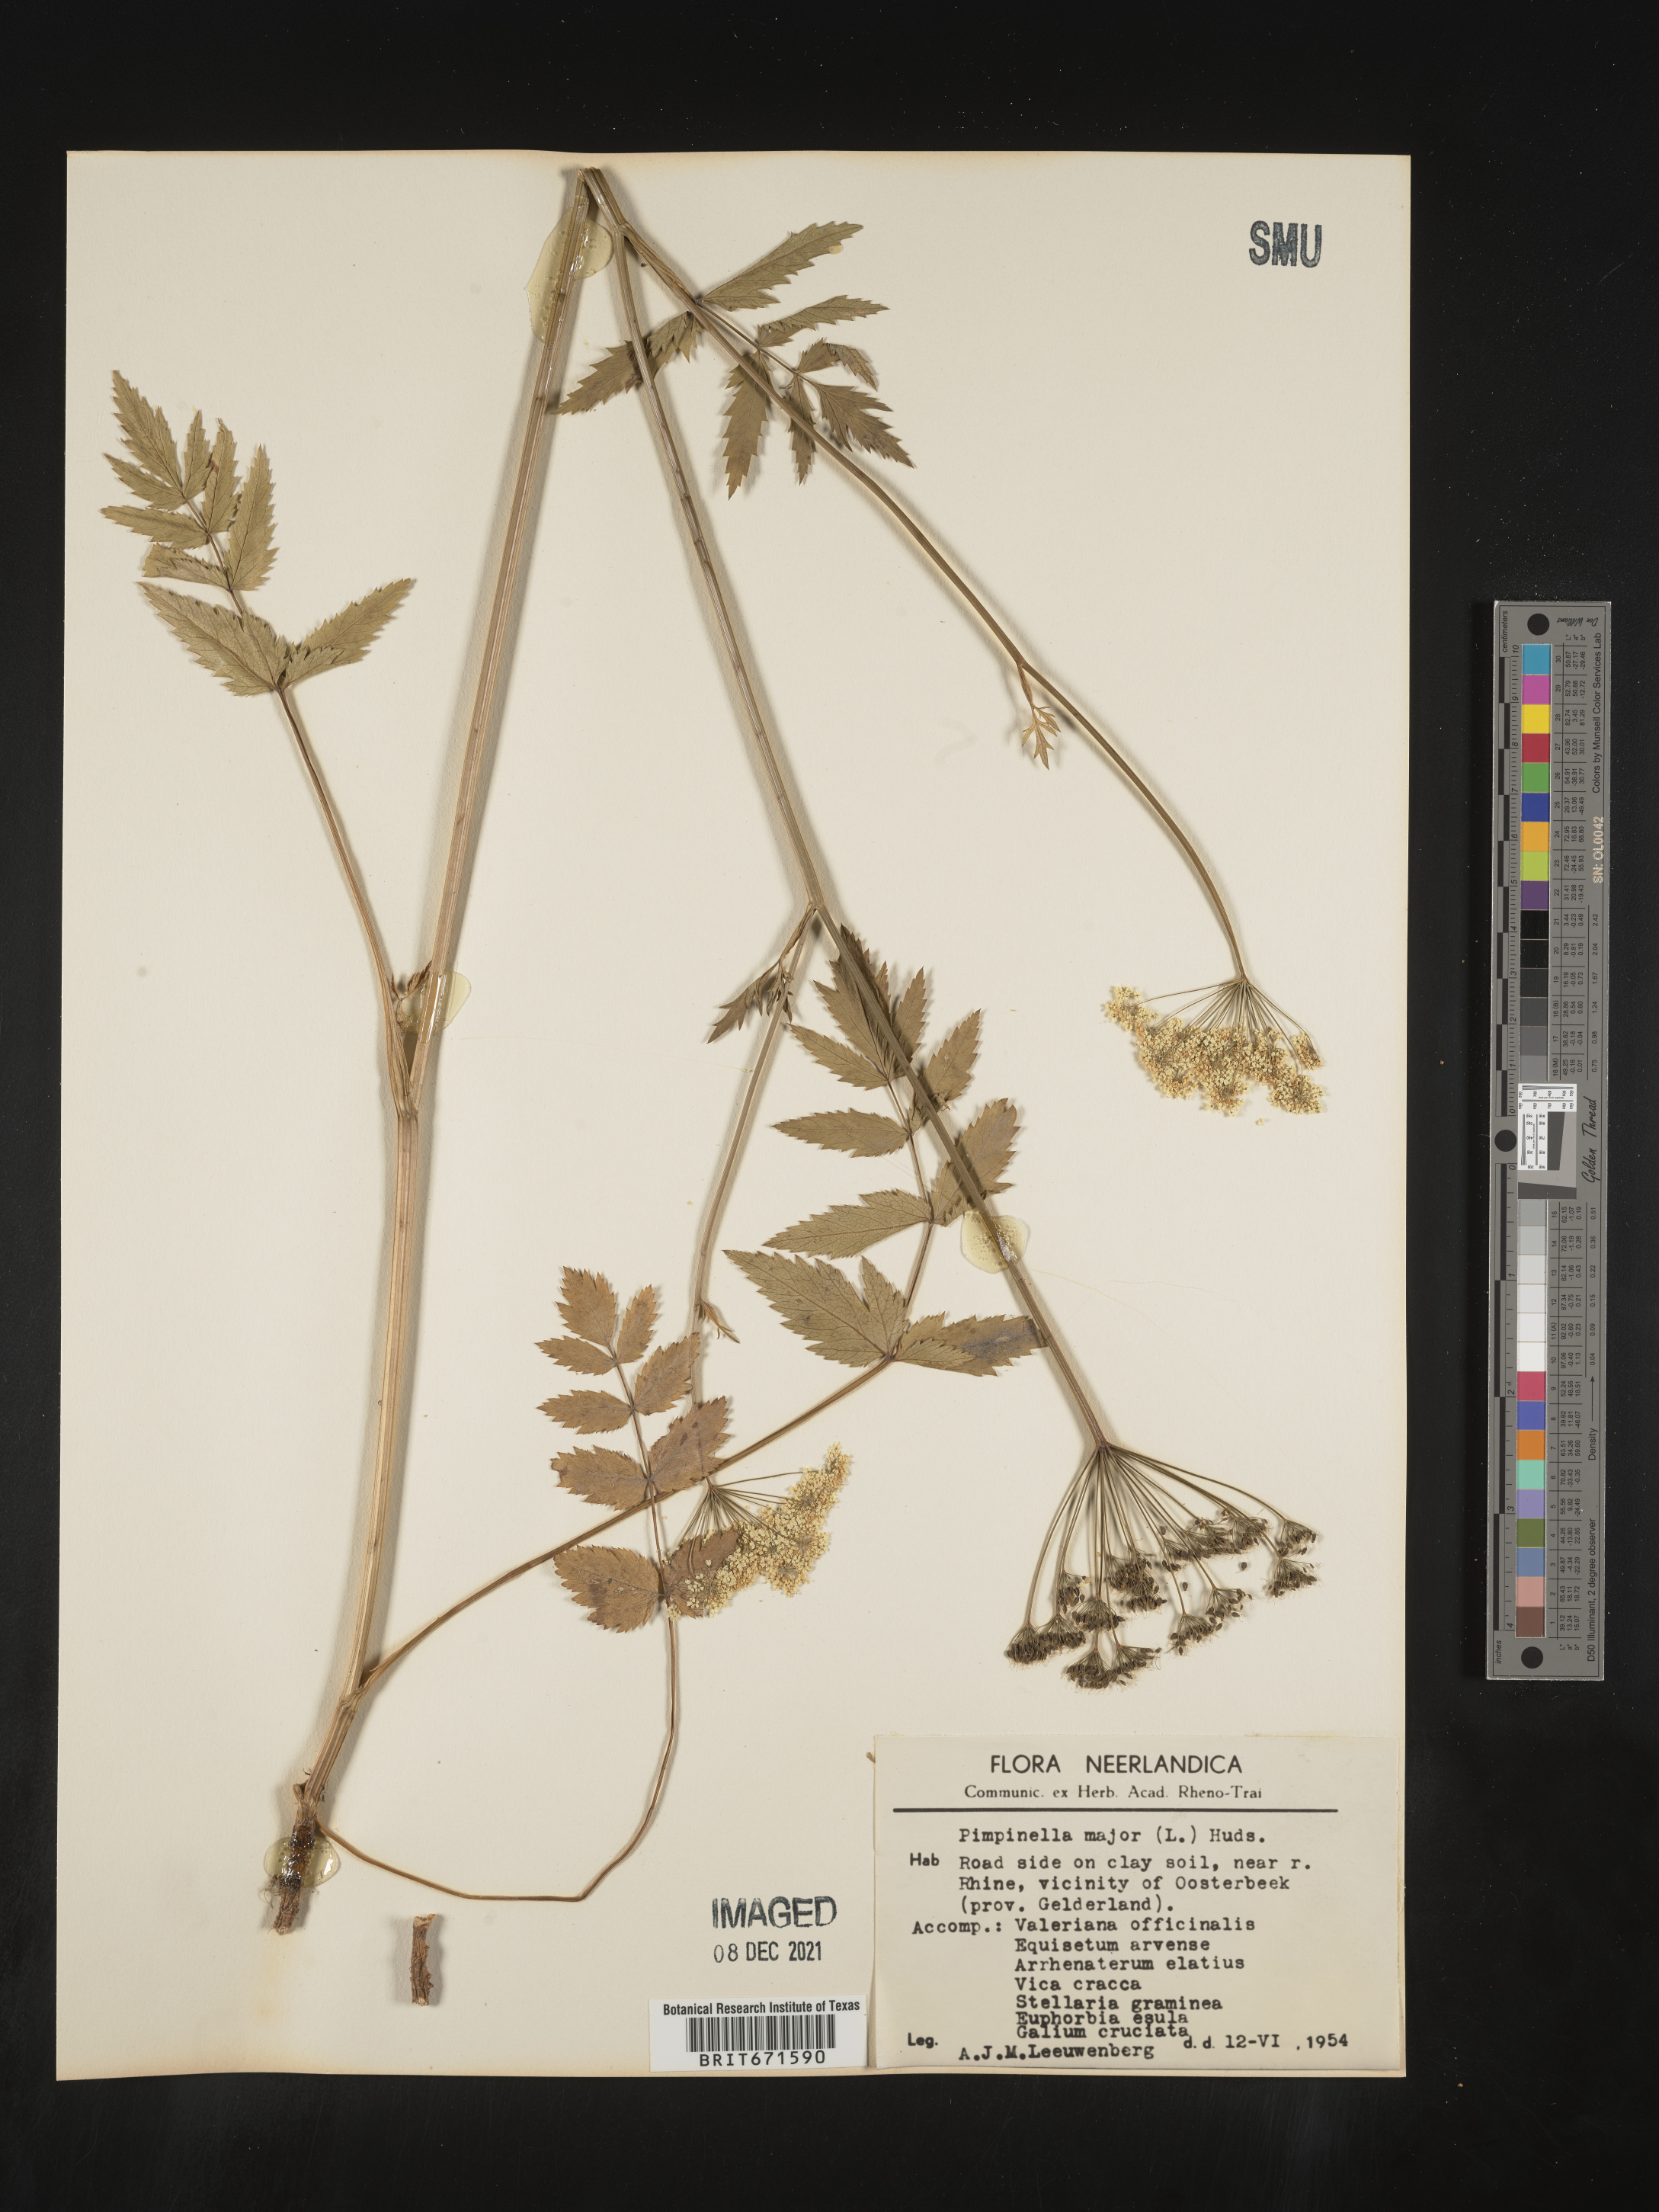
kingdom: Plantae
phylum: Tracheophyta
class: Magnoliopsida
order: Apiales
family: Apiaceae
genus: Pimpinella
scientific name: Pimpinella major
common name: Greater burnet-saxifrage
